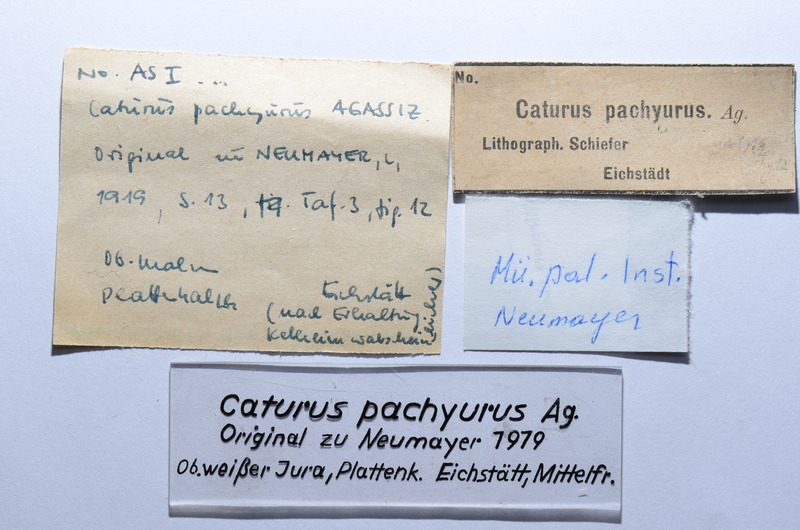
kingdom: Animalia
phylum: Chordata
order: Amiiformes
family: Caturidae
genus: Amblysemius
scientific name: Amblysemius pachyurus
